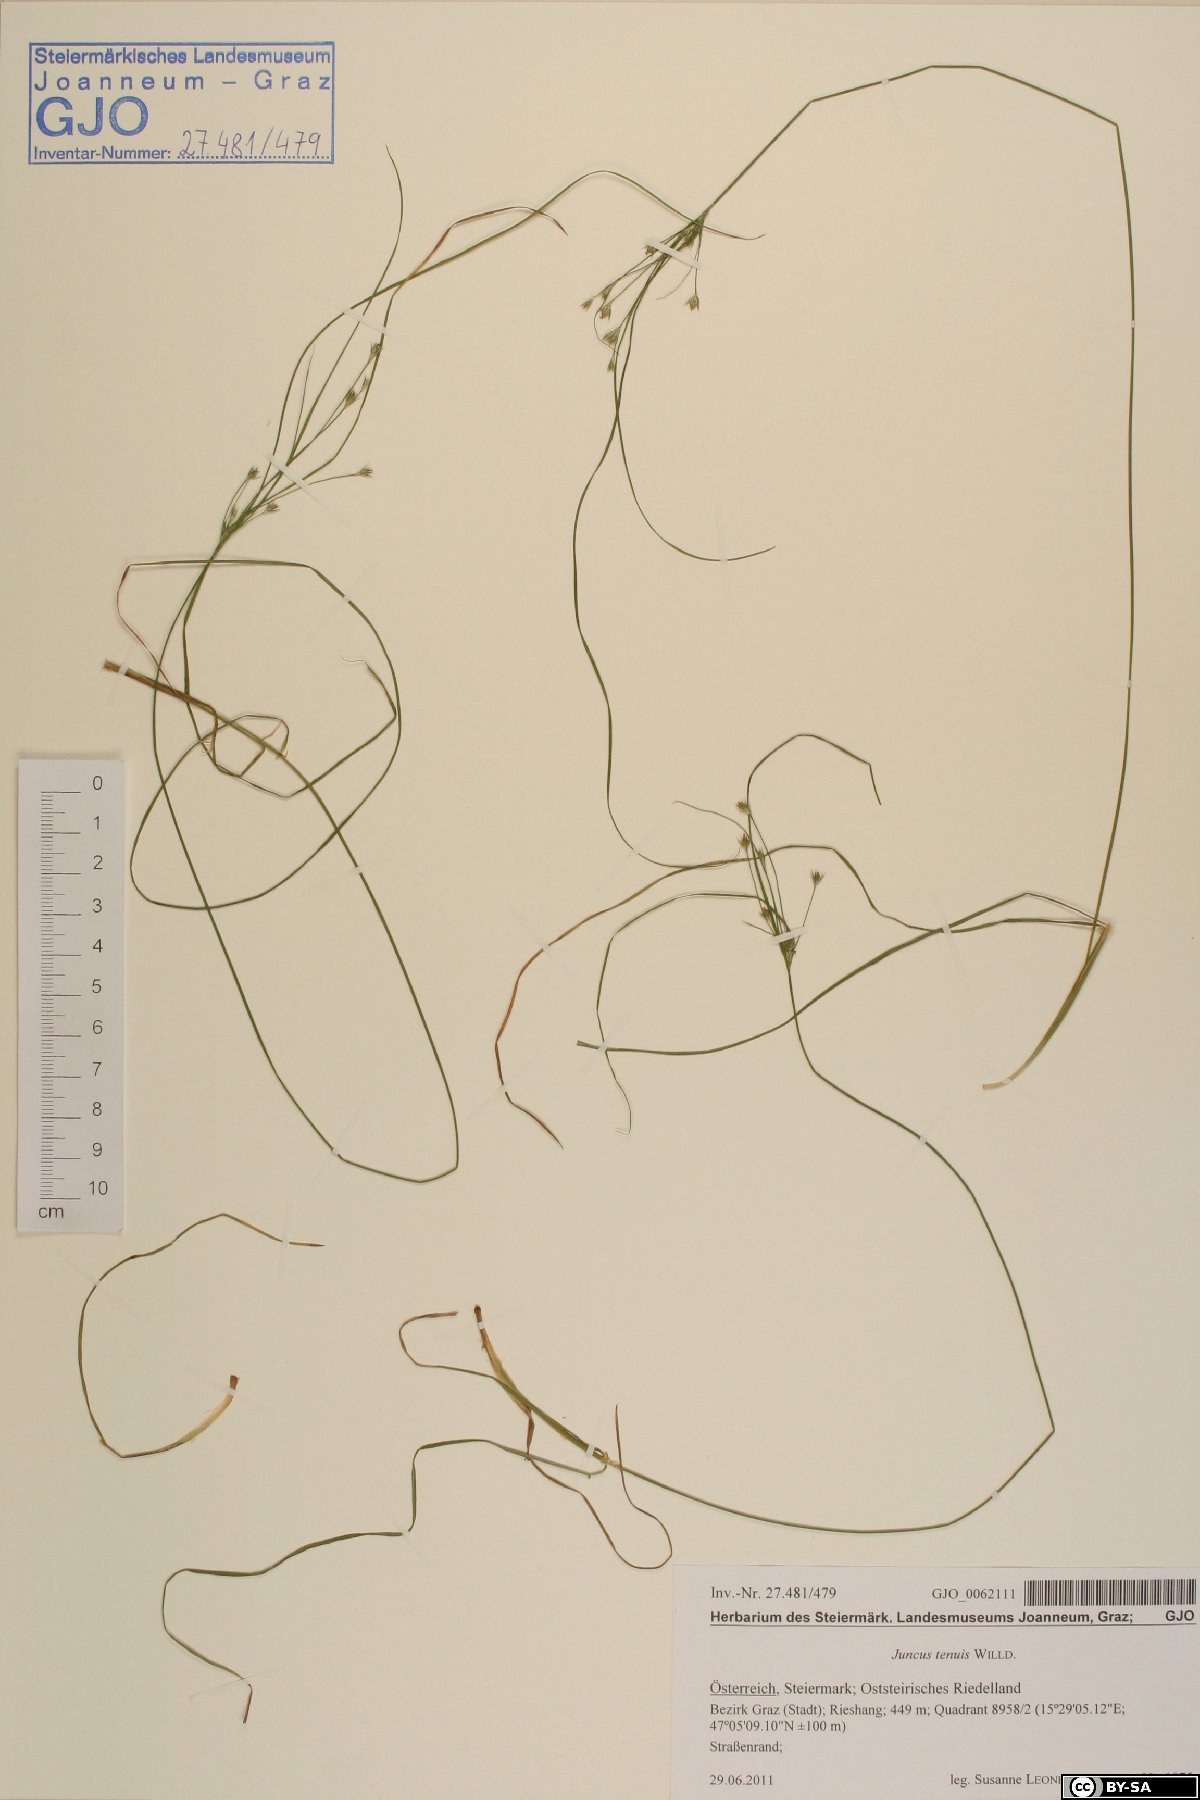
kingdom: Plantae
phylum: Tracheophyta
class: Liliopsida
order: Poales
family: Juncaceae
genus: Juncus
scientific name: Juncus tenuis
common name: Slender rush
